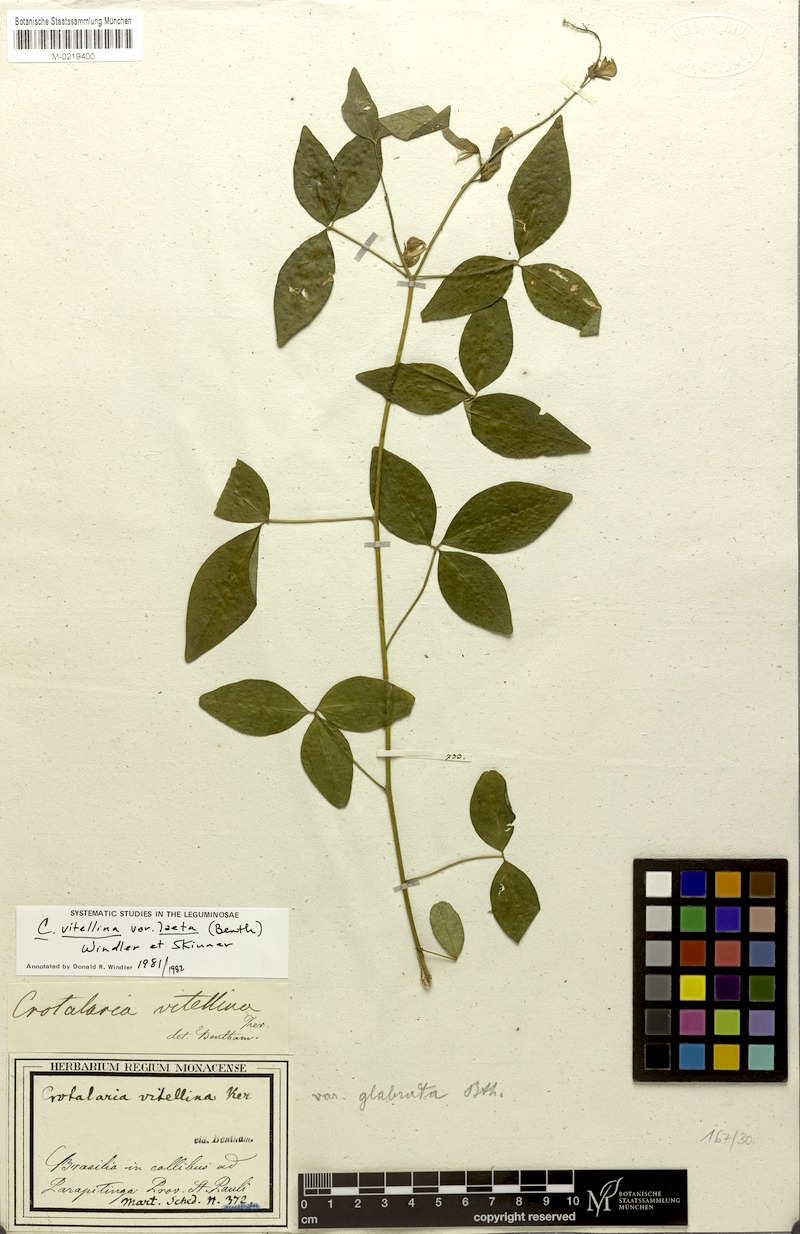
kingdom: Plantae
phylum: Tracheophyta
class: Magnoliopsida
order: Fabales
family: Fabaceae
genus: Crotalaria
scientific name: Crotalaria laeta
